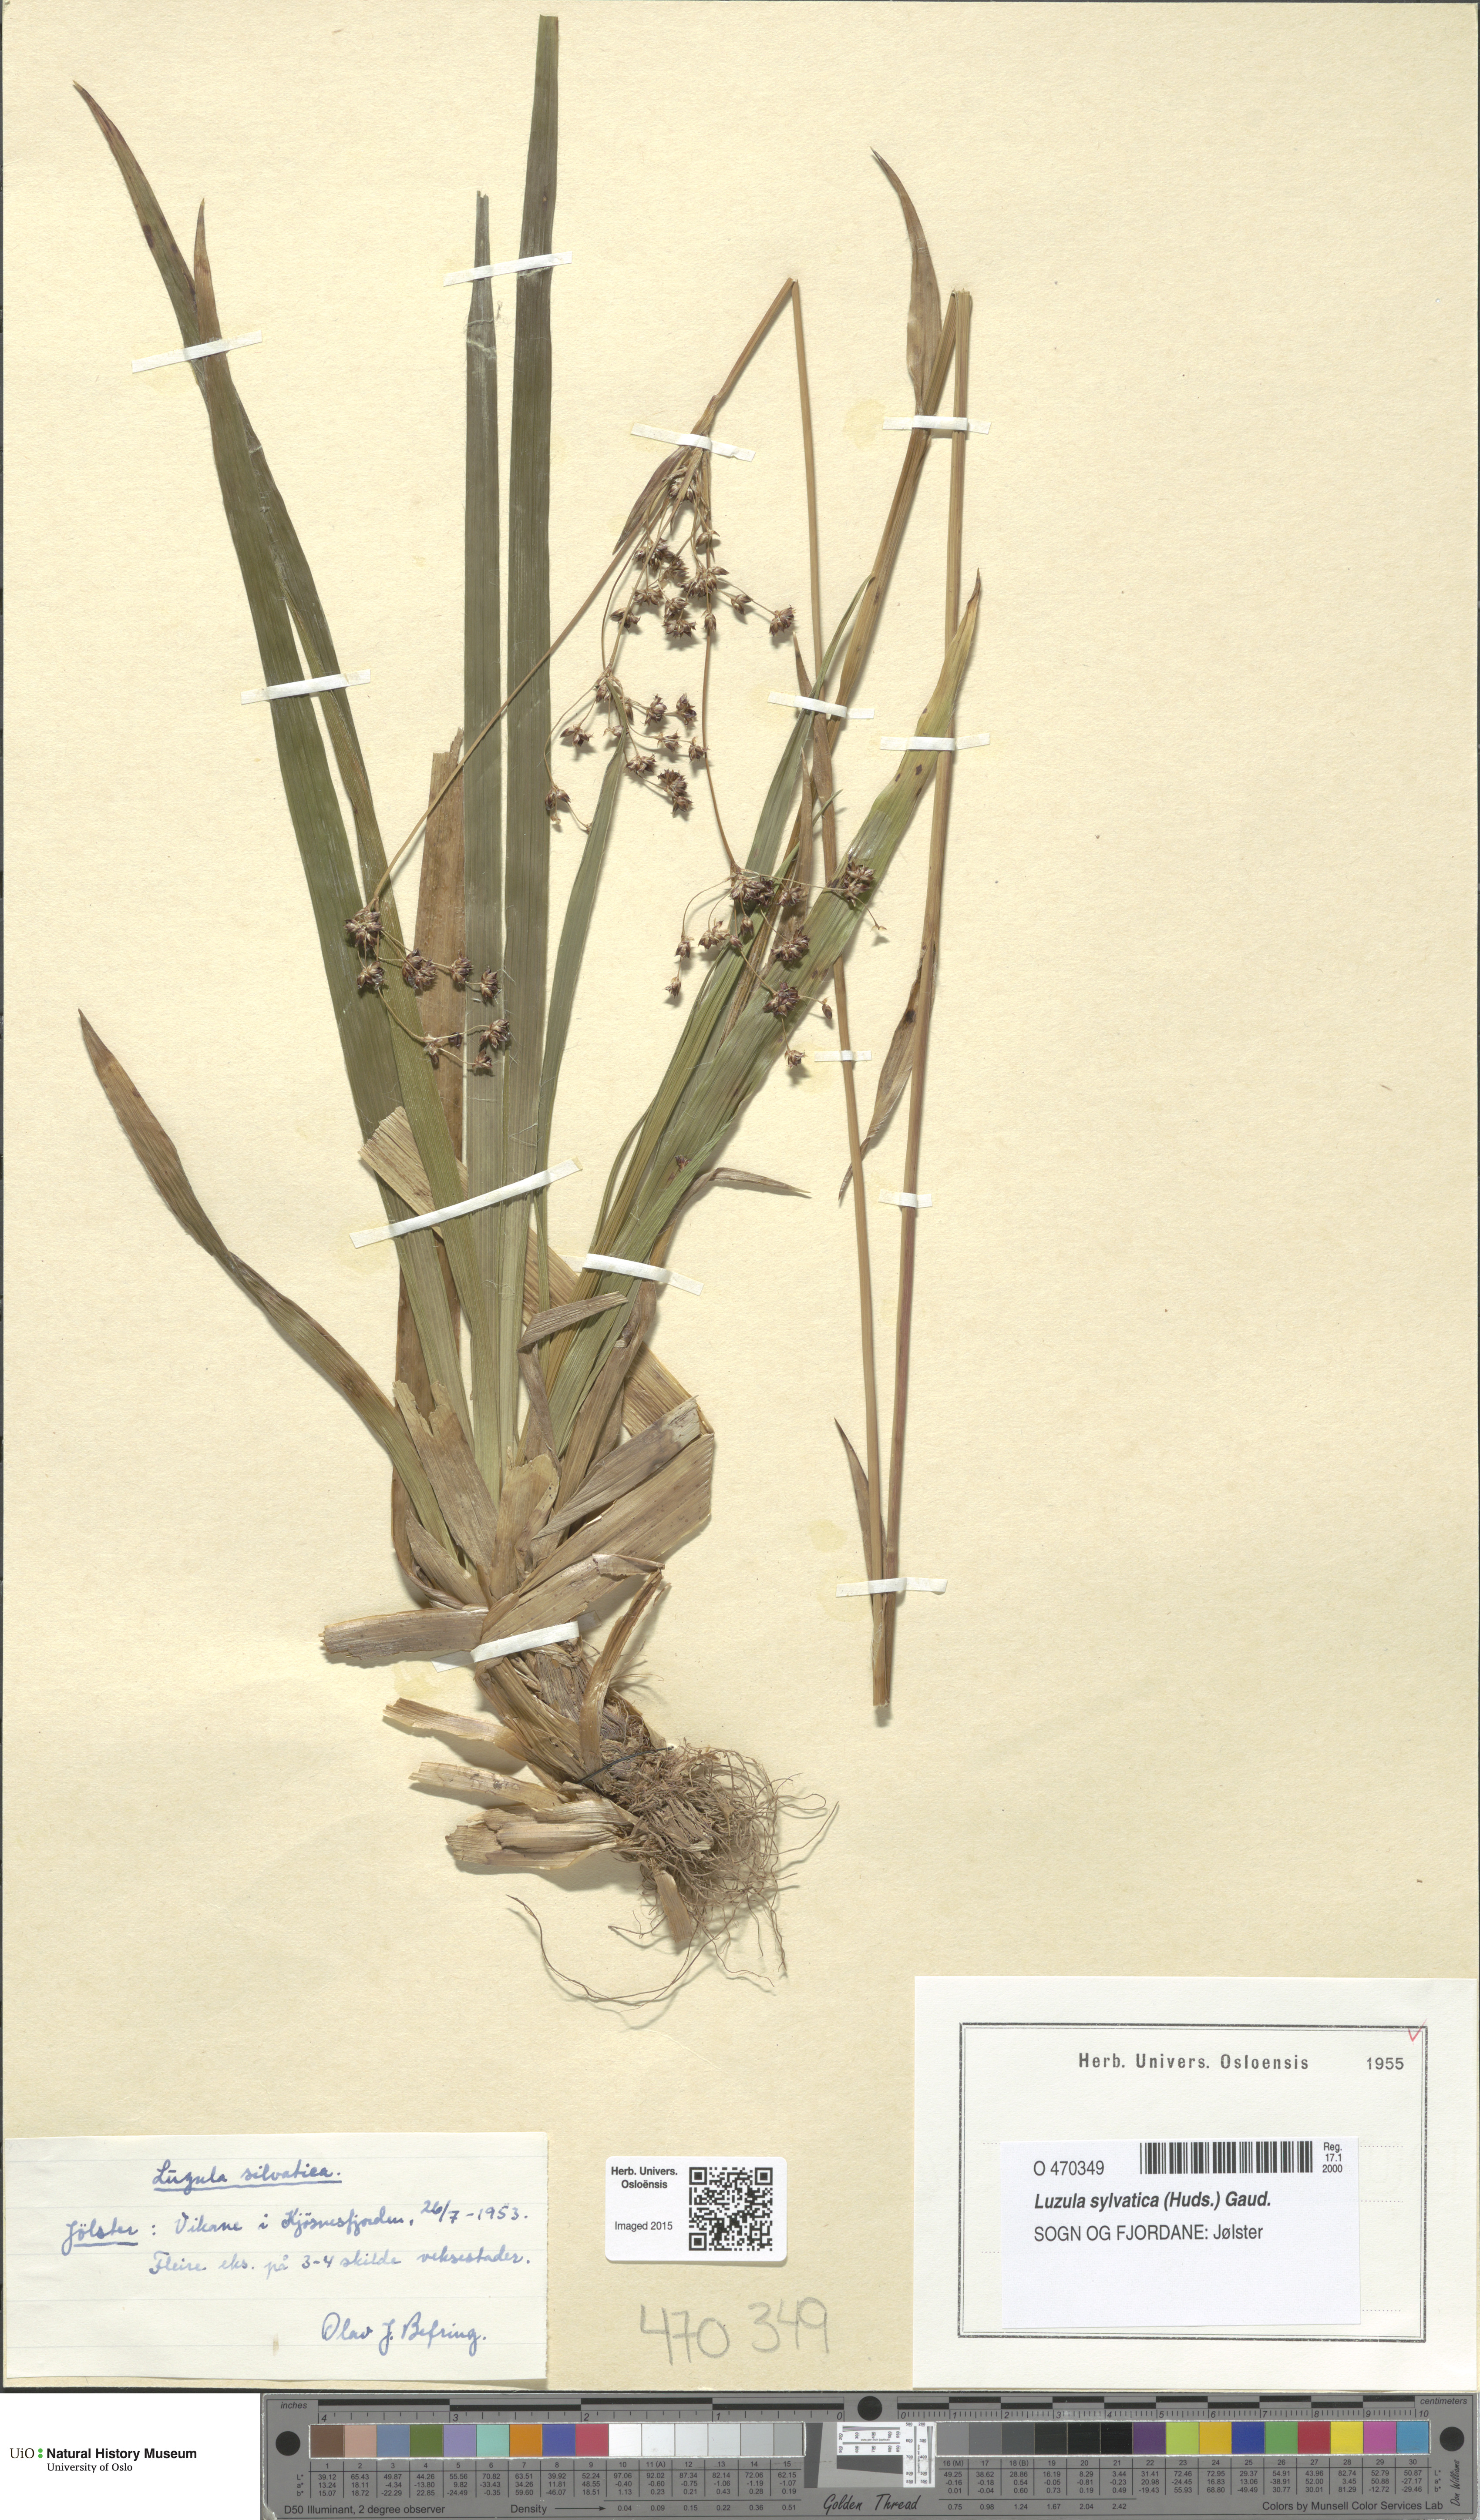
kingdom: Plantae
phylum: Tracheophyta
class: Liliopsida
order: Poales
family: Juncaceae
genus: Luzula
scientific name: Luzula sylvatica
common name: Great wood-rush
